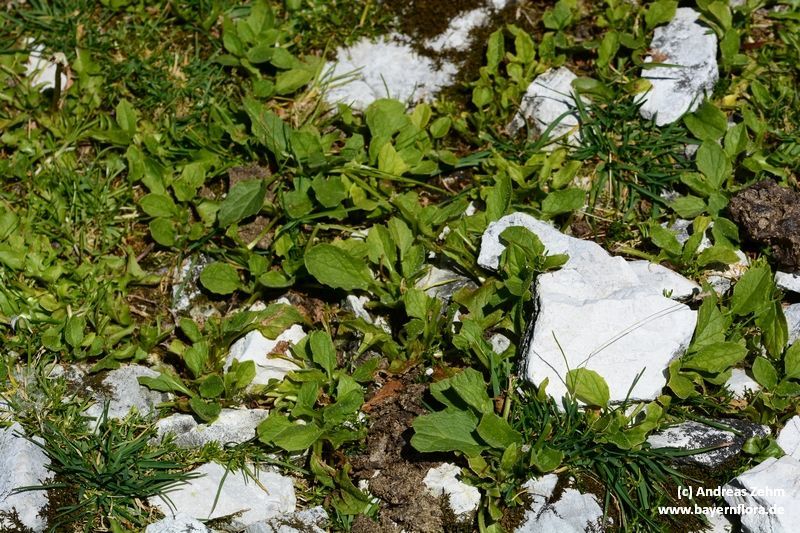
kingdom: Plantae
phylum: Tracheophyta
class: Magnoliopsida
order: Asterales
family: Asteraceae
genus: Doronicum
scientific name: Doronicum grandiflorum
